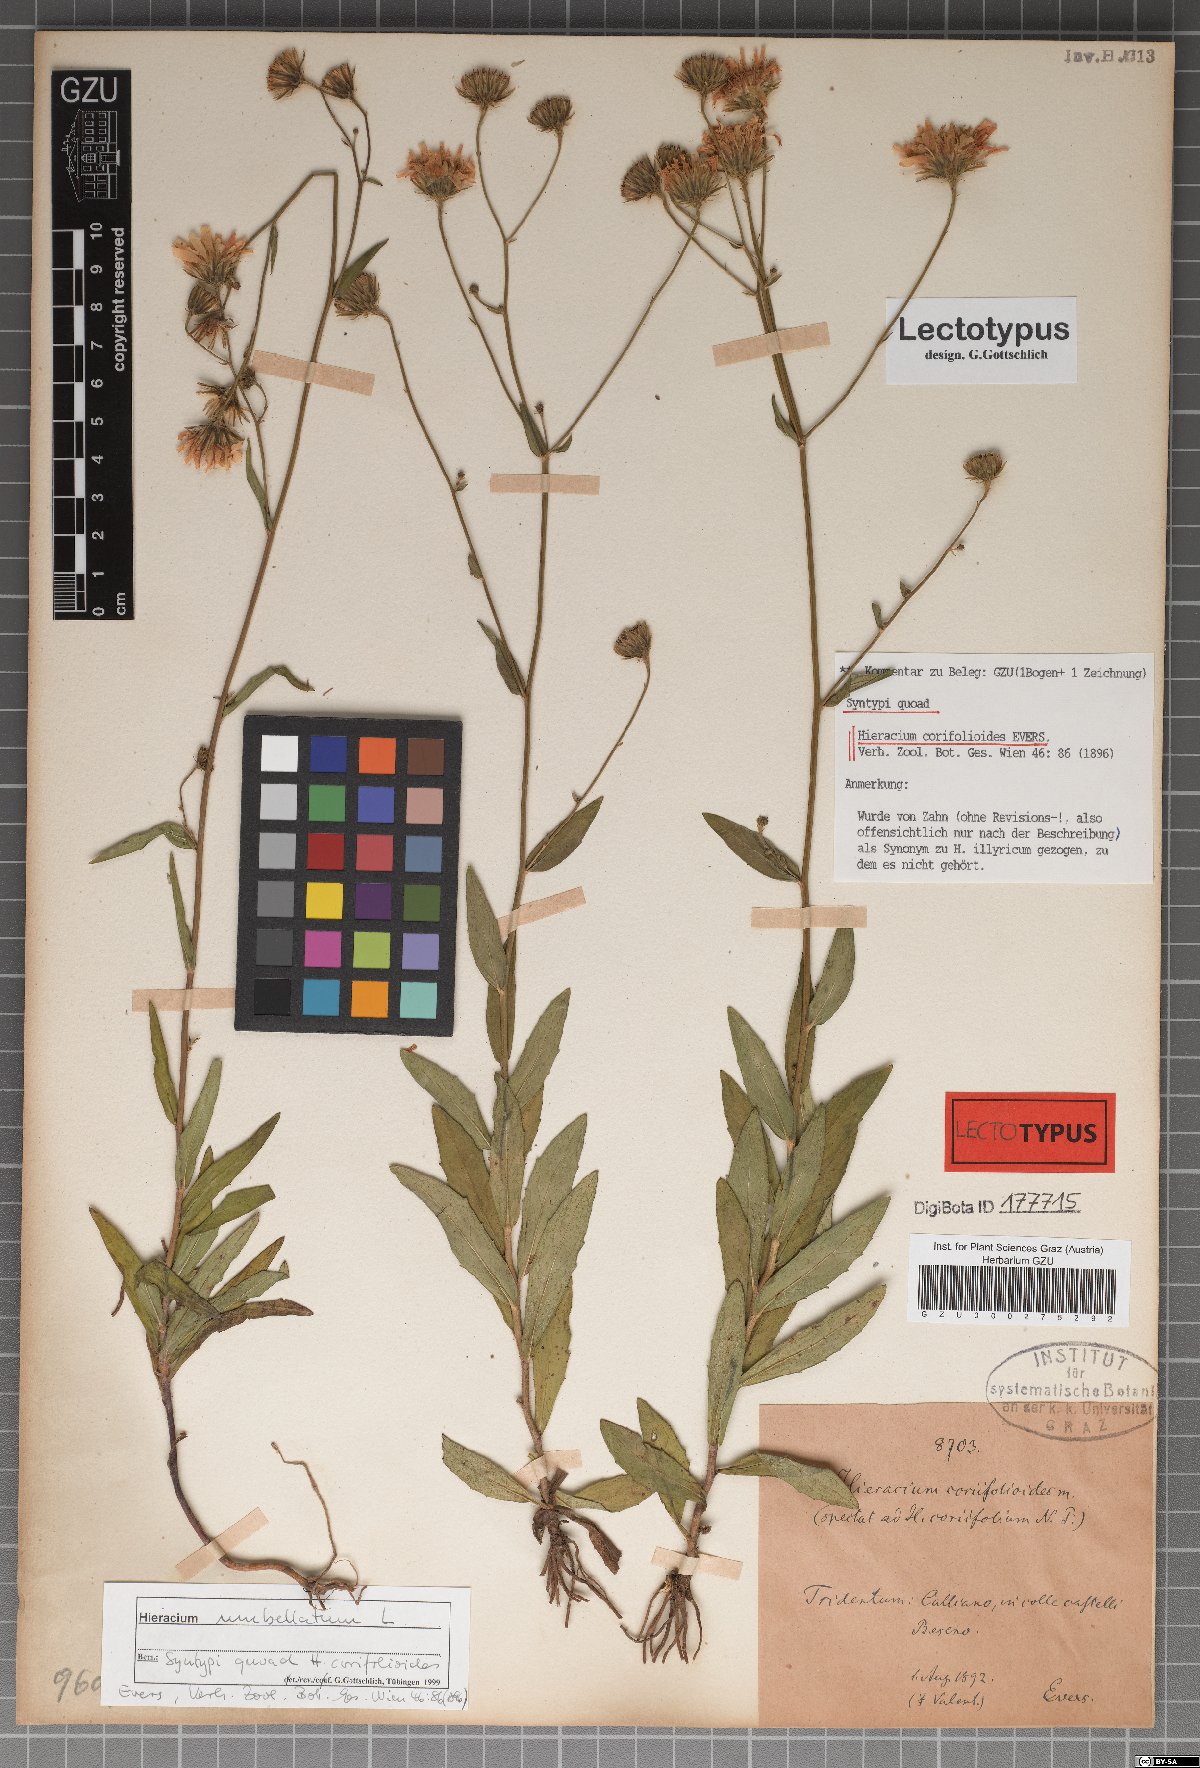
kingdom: Plantae
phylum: Tracheophyta
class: Magnoliopsida
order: Asterales
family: Asteraceae
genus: Hieracium
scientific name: Hieracium coriifolioides
